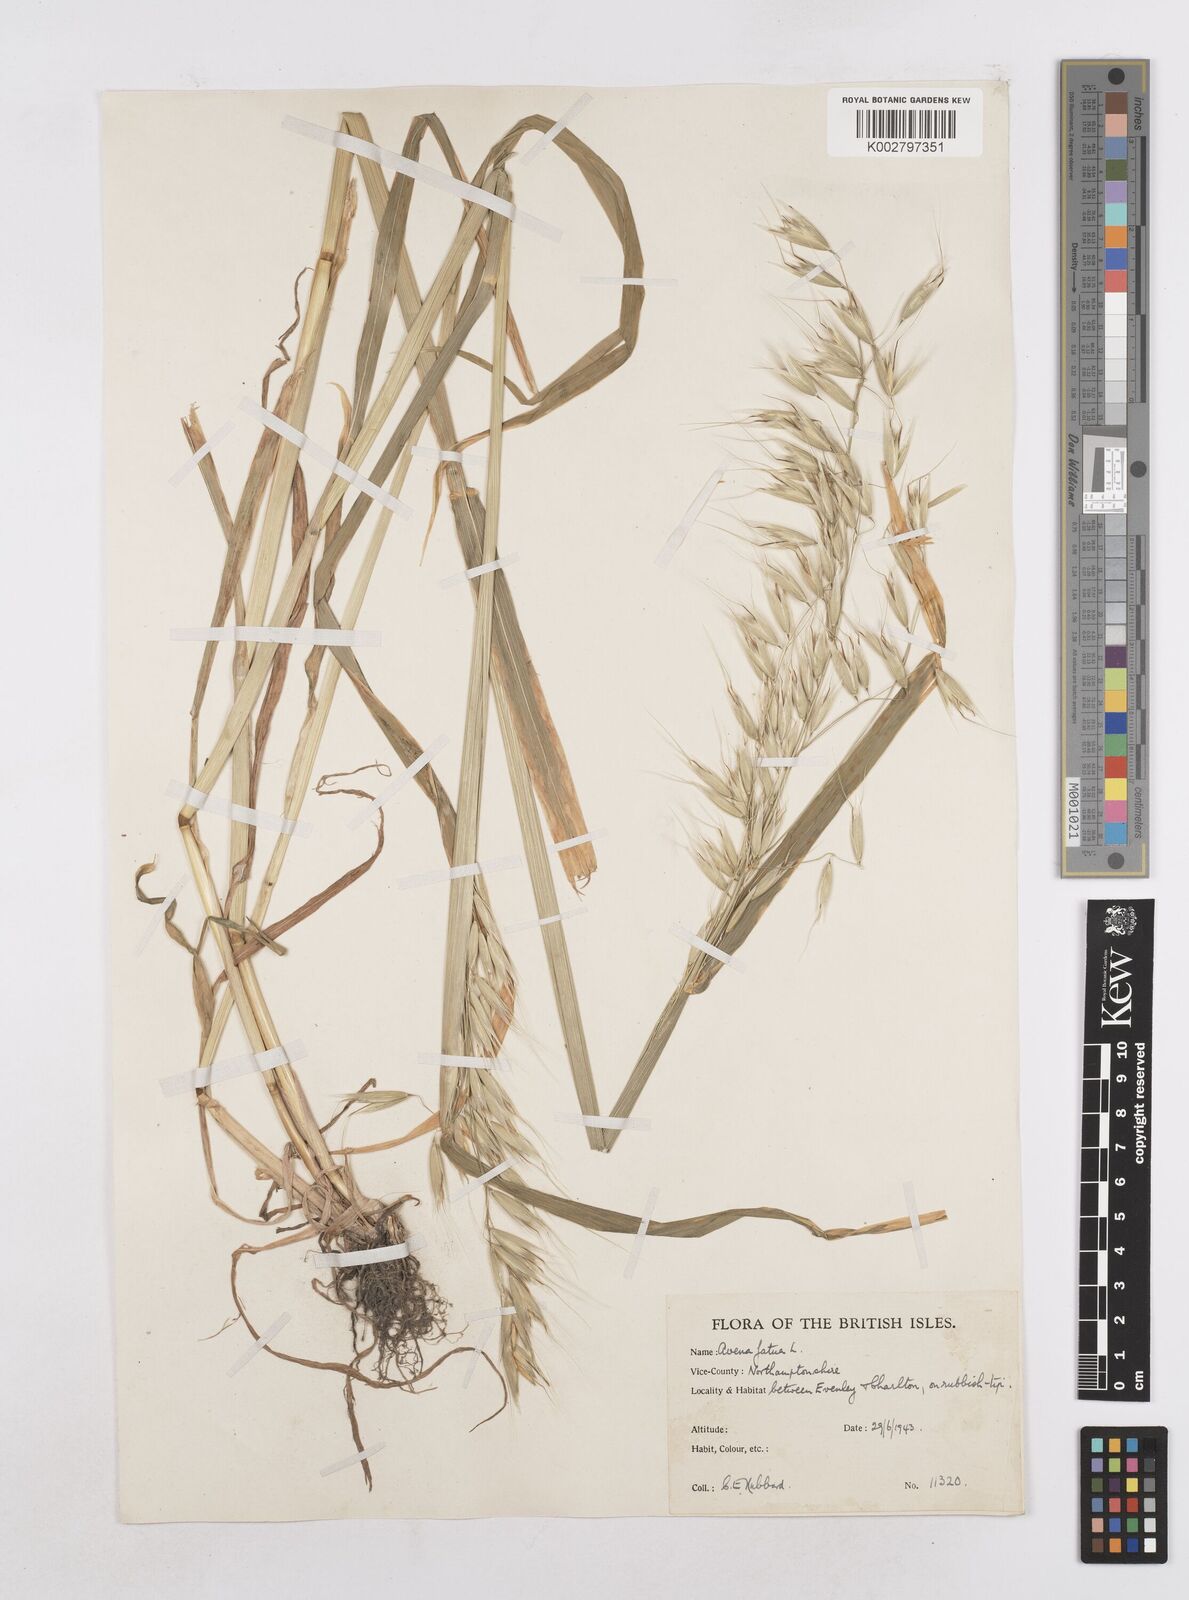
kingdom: Plantae
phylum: Tracheophyta
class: Liliopsida
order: Poales
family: Poaceae
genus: Avena
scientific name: Avena fatua
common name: Wild oat
